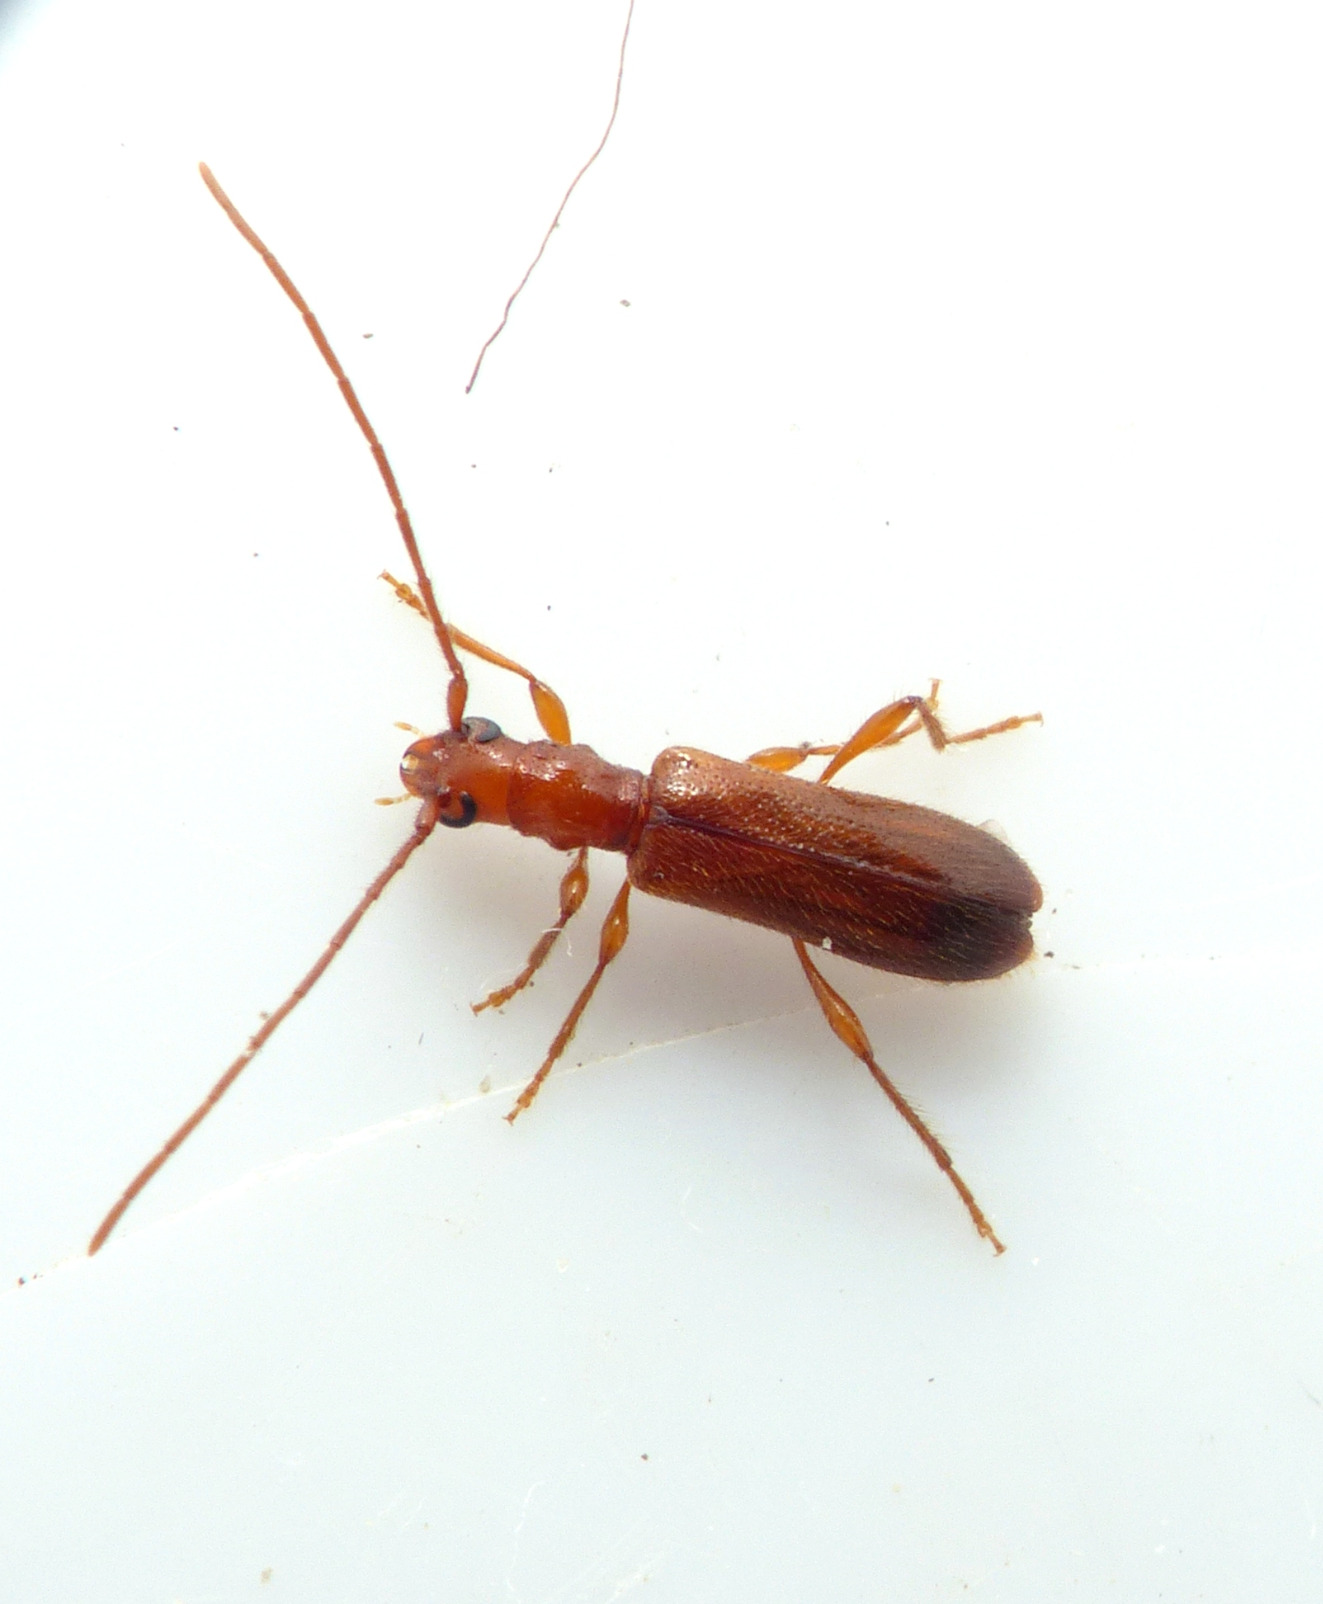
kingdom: Animalia
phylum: Arthropoda
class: Insecta
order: Coleoptera
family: Cerambycidae
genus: Obrium
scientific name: Obrium brunneum
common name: Blankbuk
